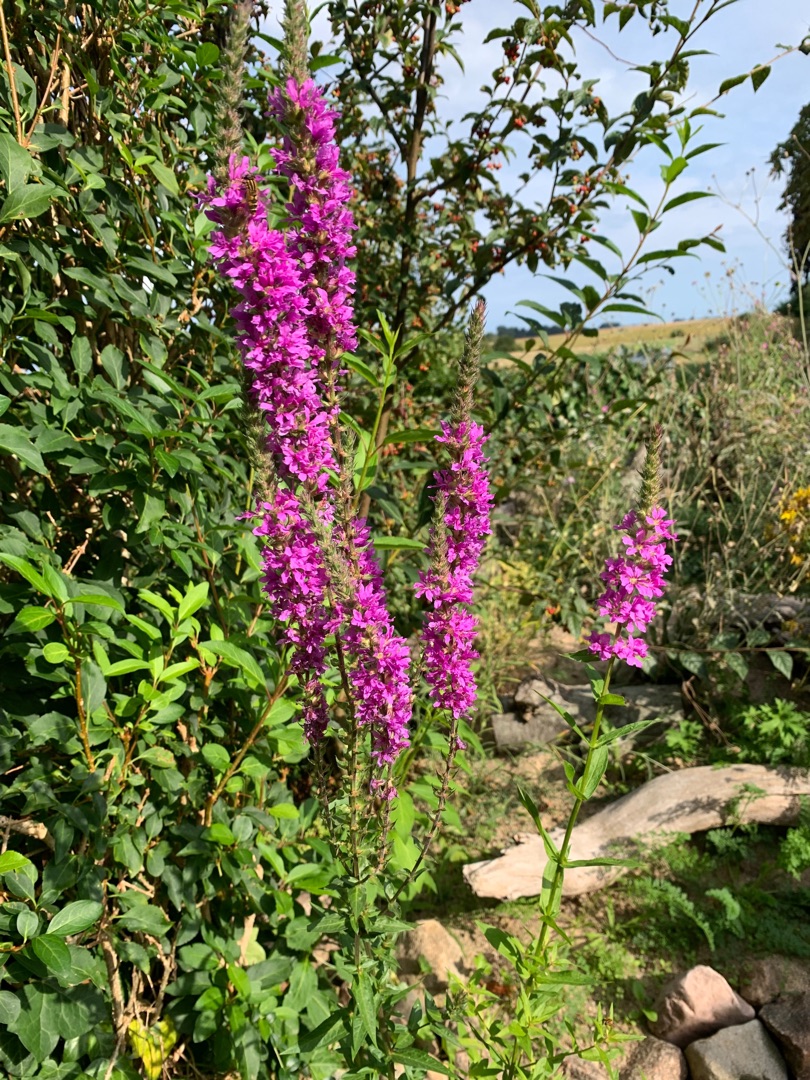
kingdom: Plantae
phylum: Tracheophyta
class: Magnoliopsida
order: Myrtales
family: Lythraceae
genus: Lythrum
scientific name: Lythrum salicaria
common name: Kattehale
